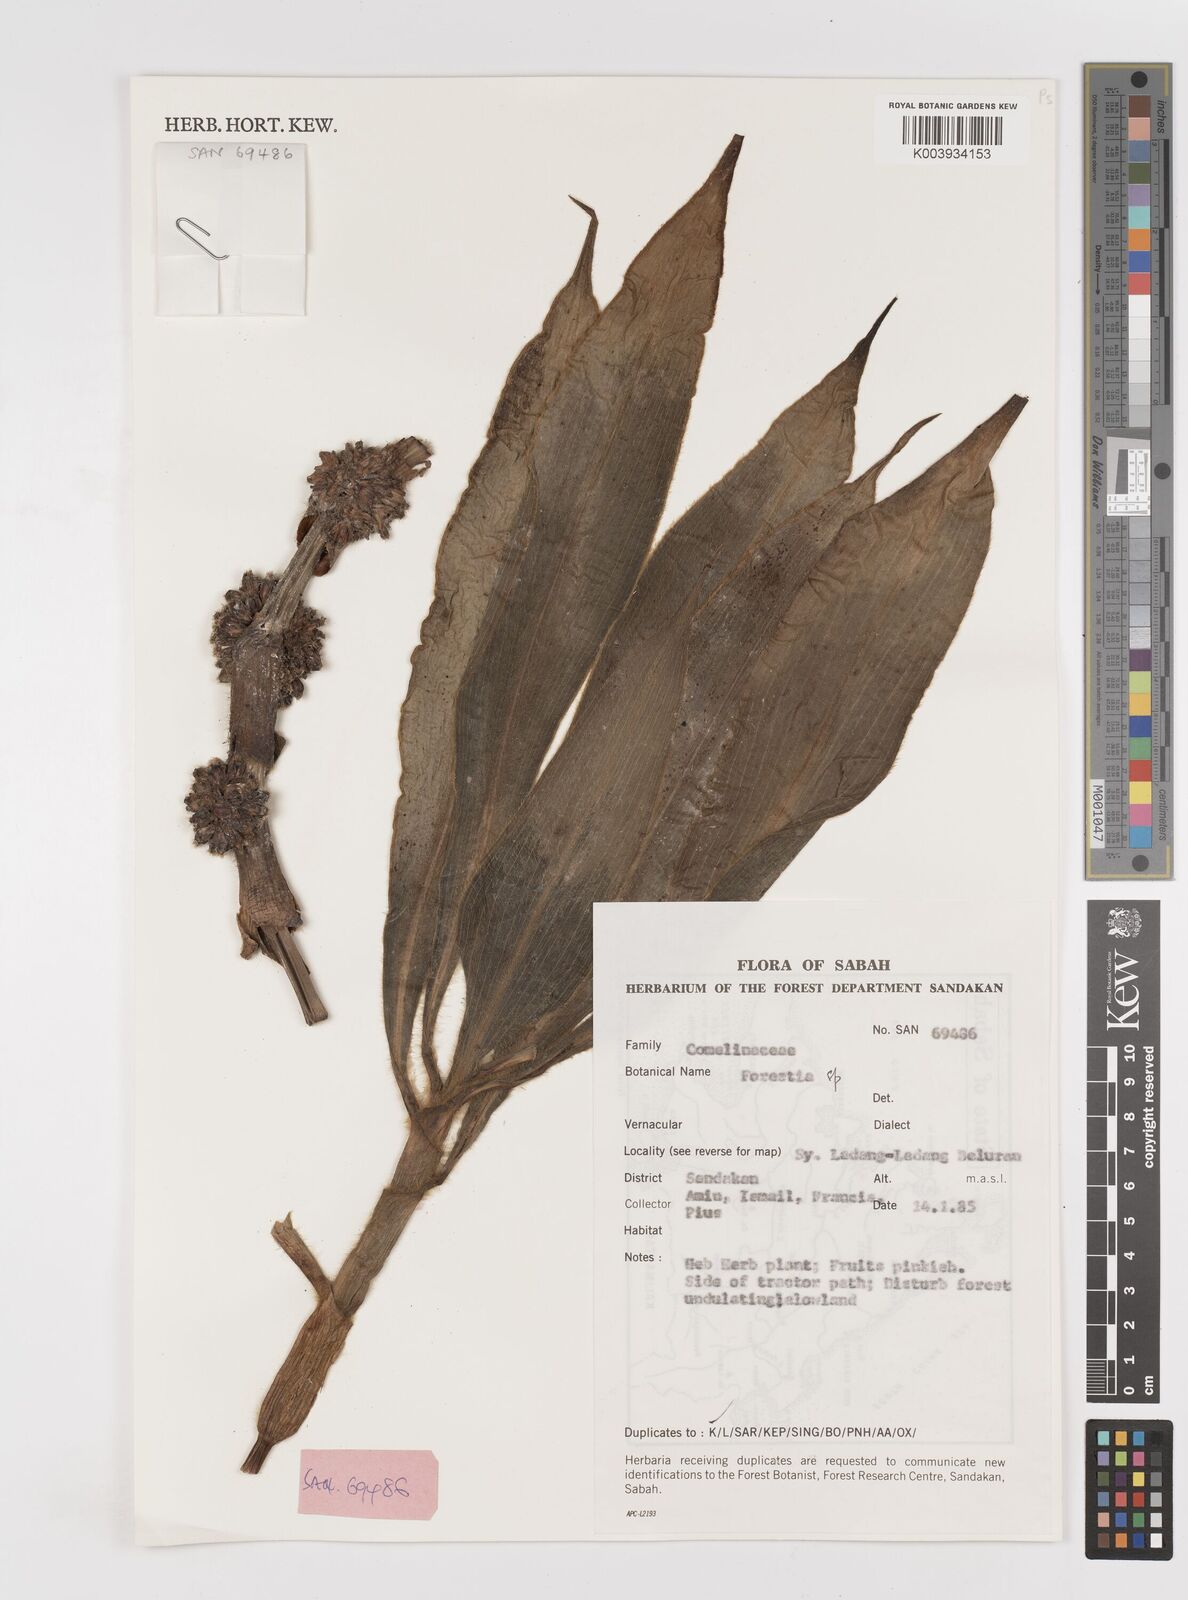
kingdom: Plantae
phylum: Tracheophyta
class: Liliopsida
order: Commelinales
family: Commelinaceae
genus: Amischotolype
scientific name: Amischotolype
